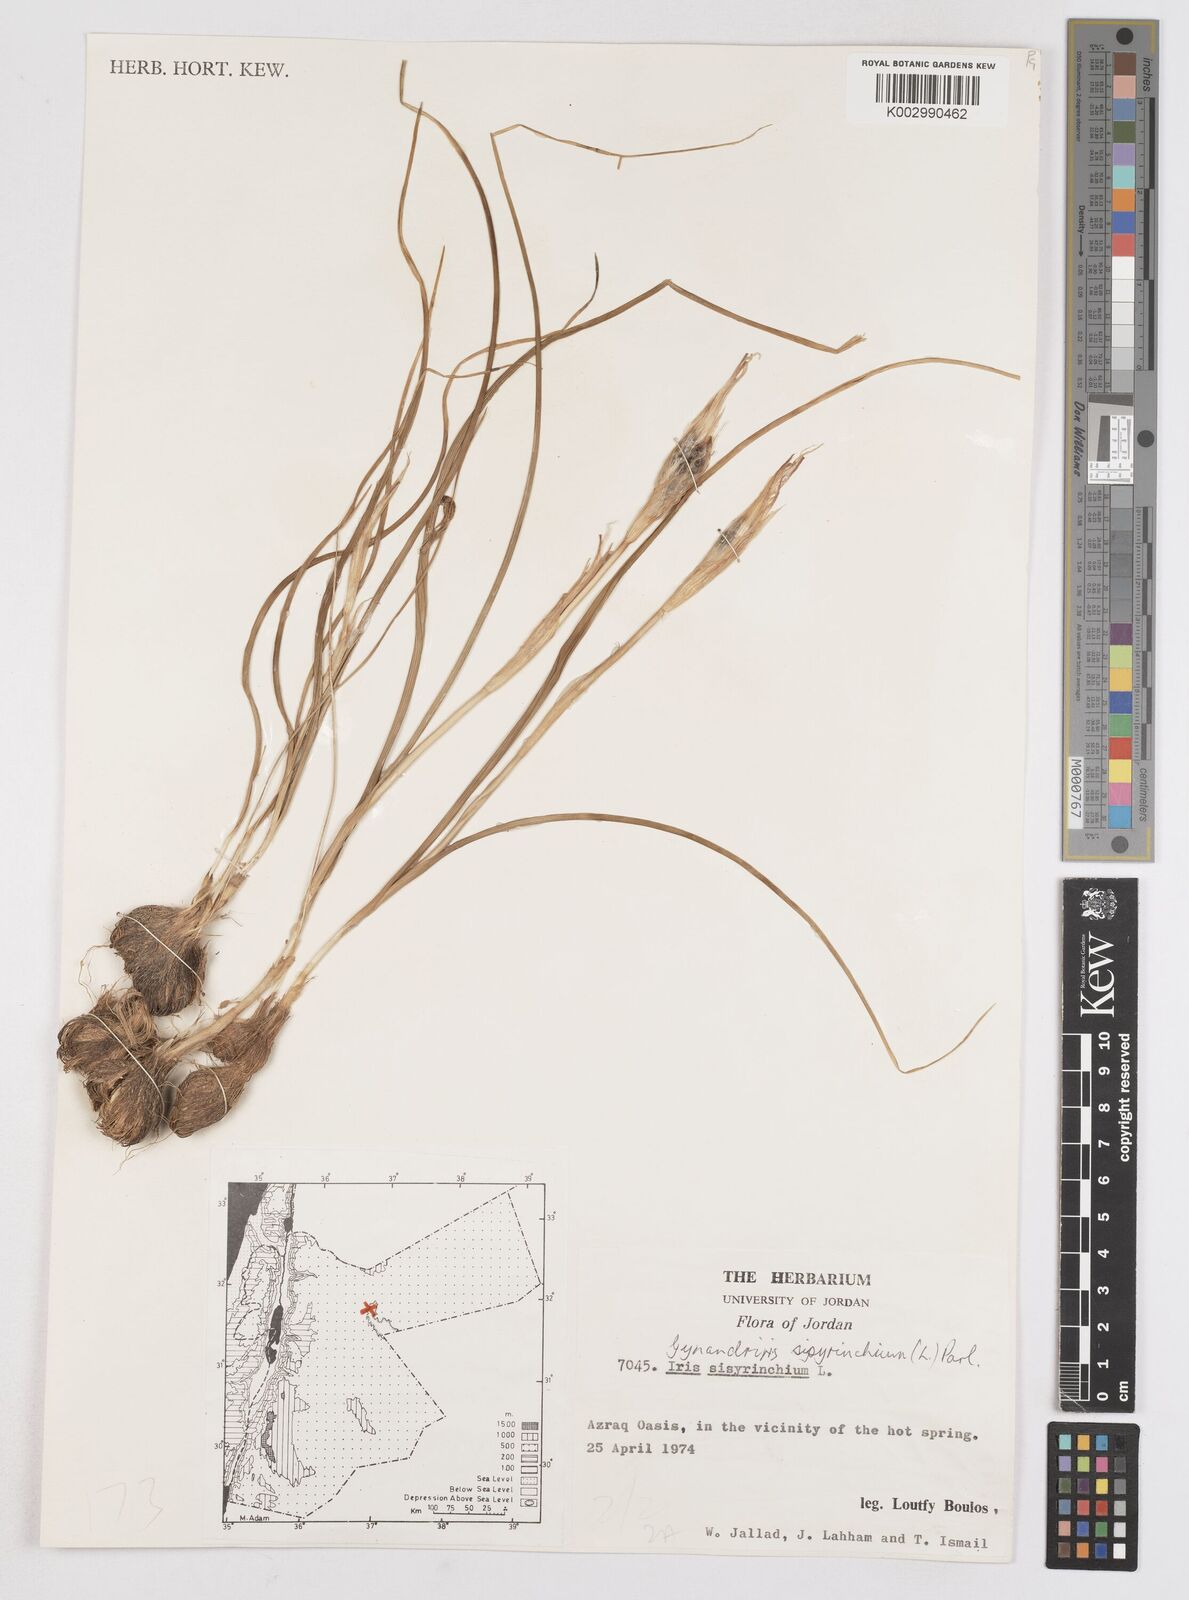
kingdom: Plantae
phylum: Tracheophyta
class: Liliopsida
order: Asparagales
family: Iridaceae
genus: Moraea
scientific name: Moraea sisyrinchium
